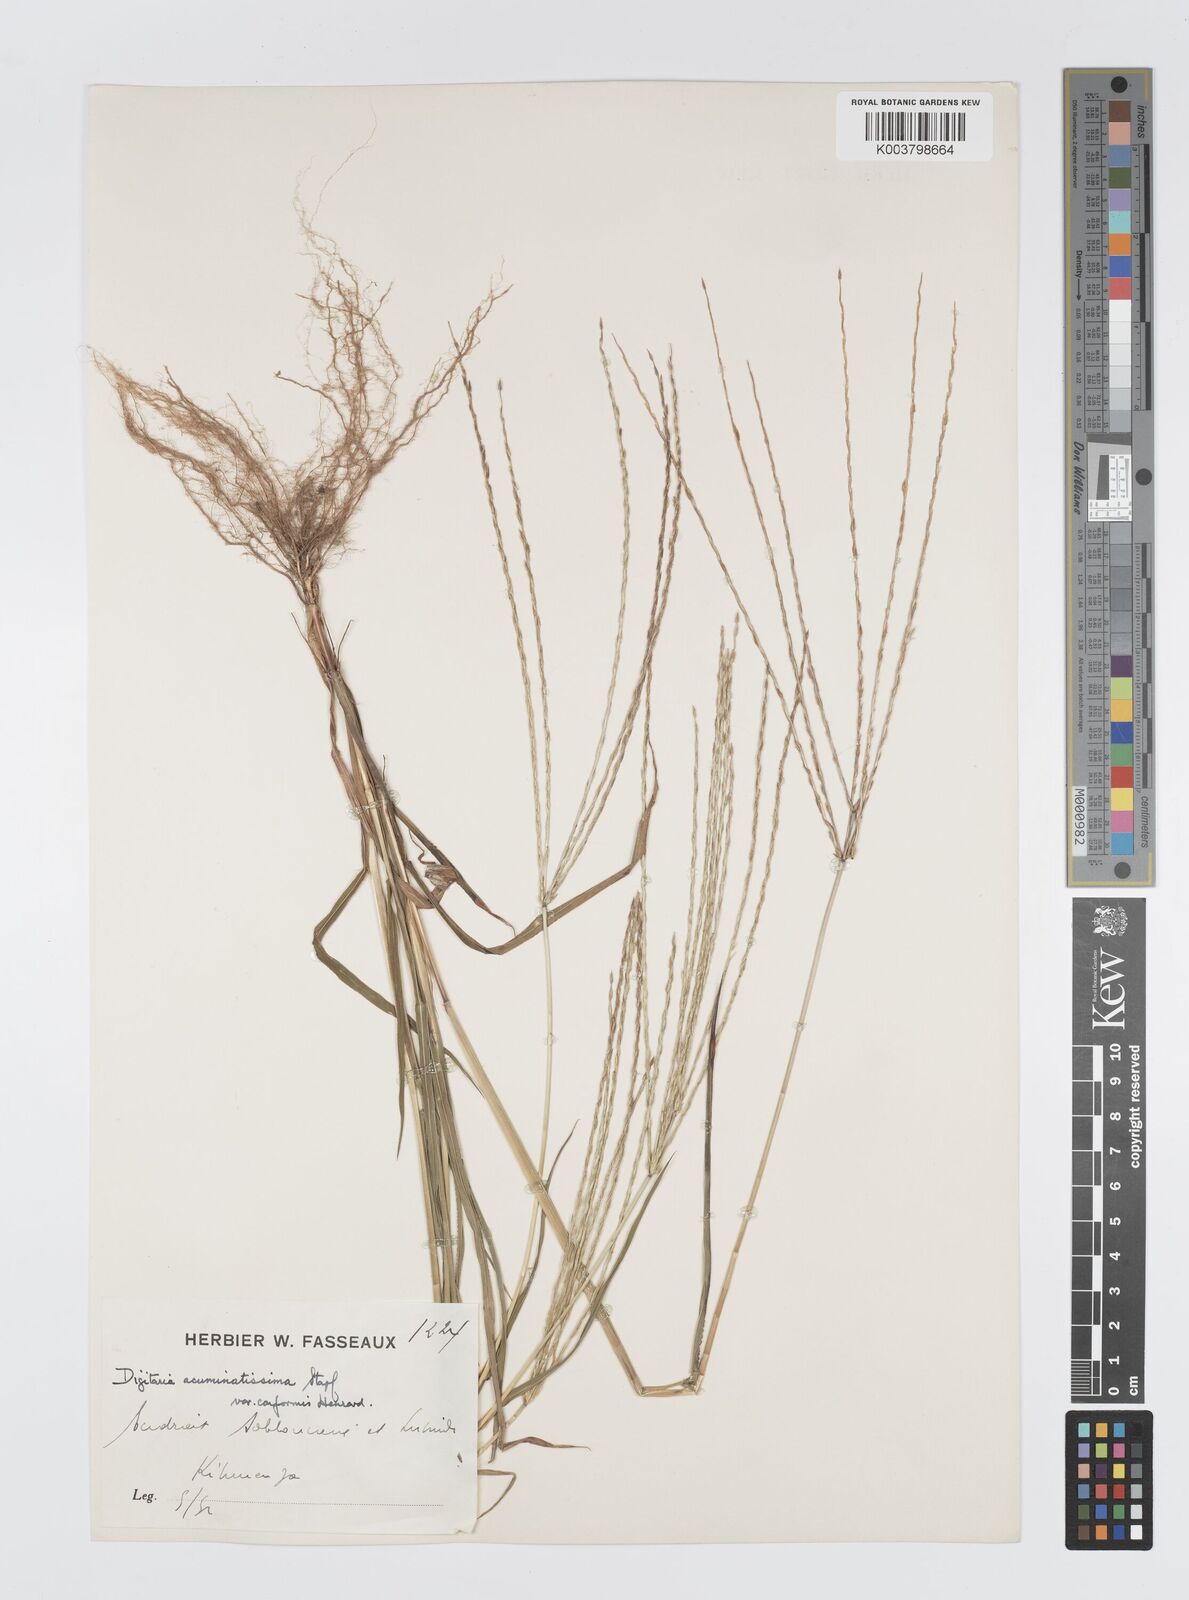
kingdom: Plantae
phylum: Tracheophyta
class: Liliopsida
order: Poales
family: Poaceae
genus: Digitaria
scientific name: Digitaria acuminatissima
